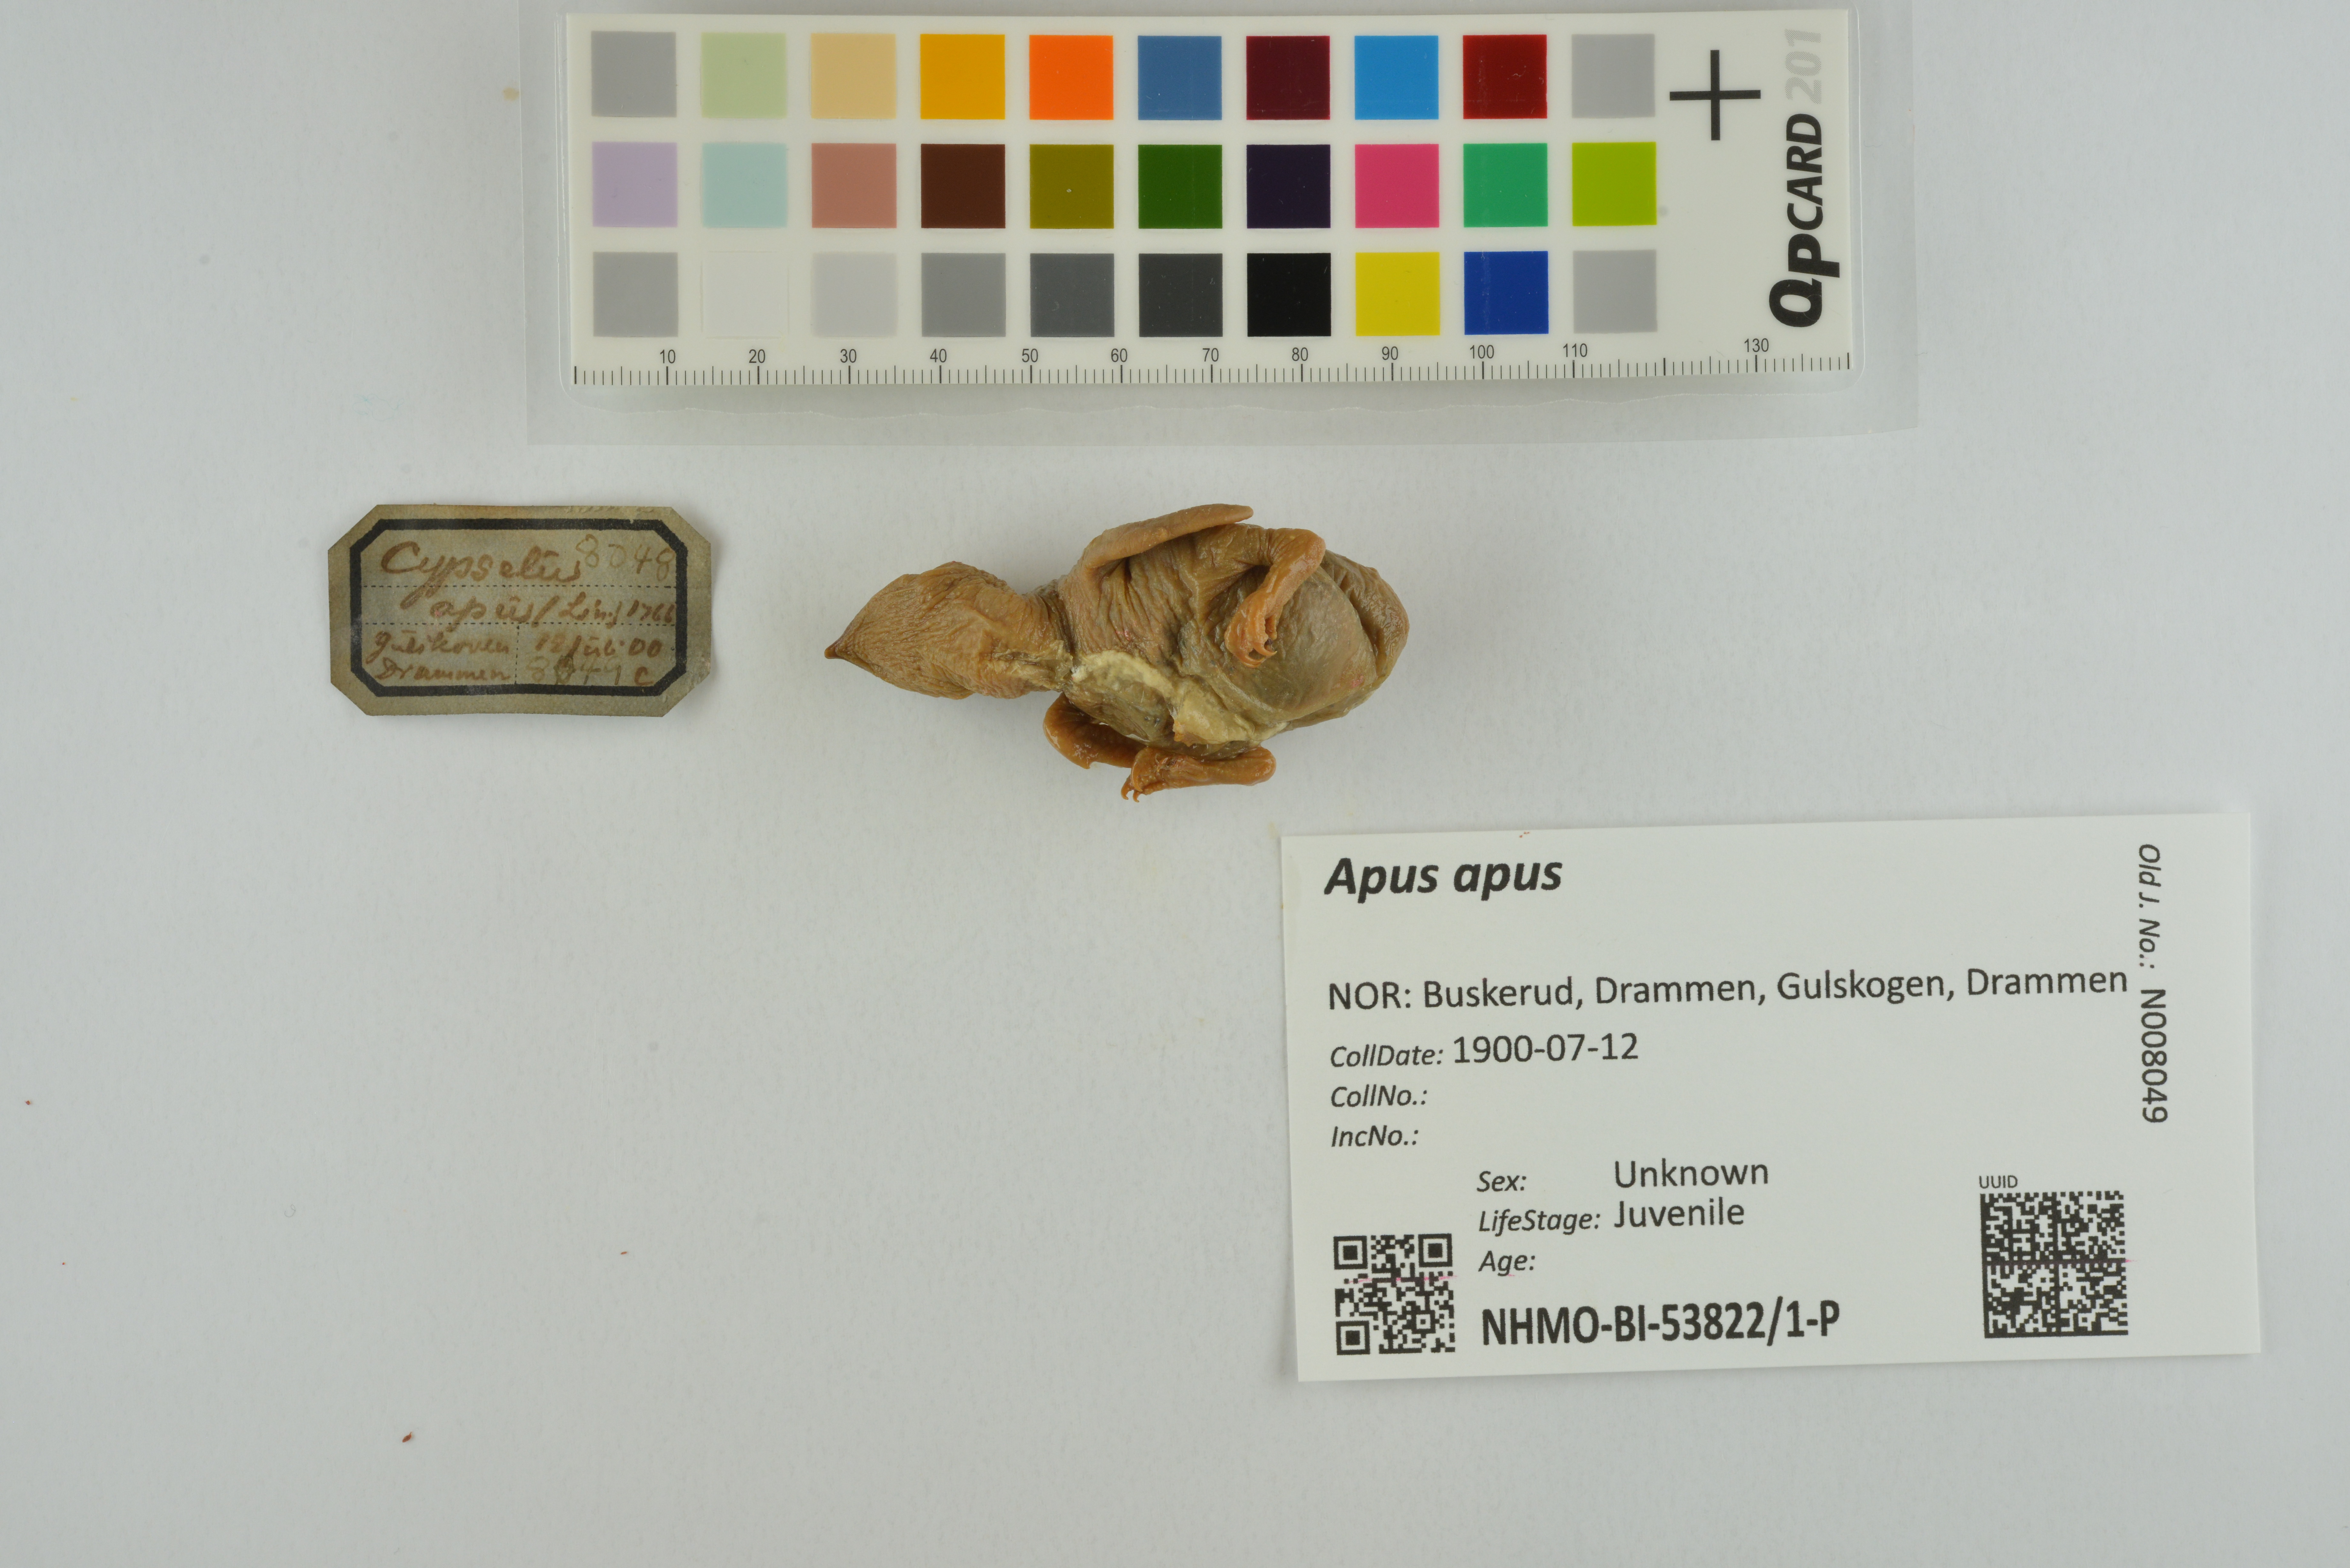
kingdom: Animalia
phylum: Chordata
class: Aves
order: Apodiformes
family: Apodidae
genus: Apus
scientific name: Apus apus
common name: Common swift
